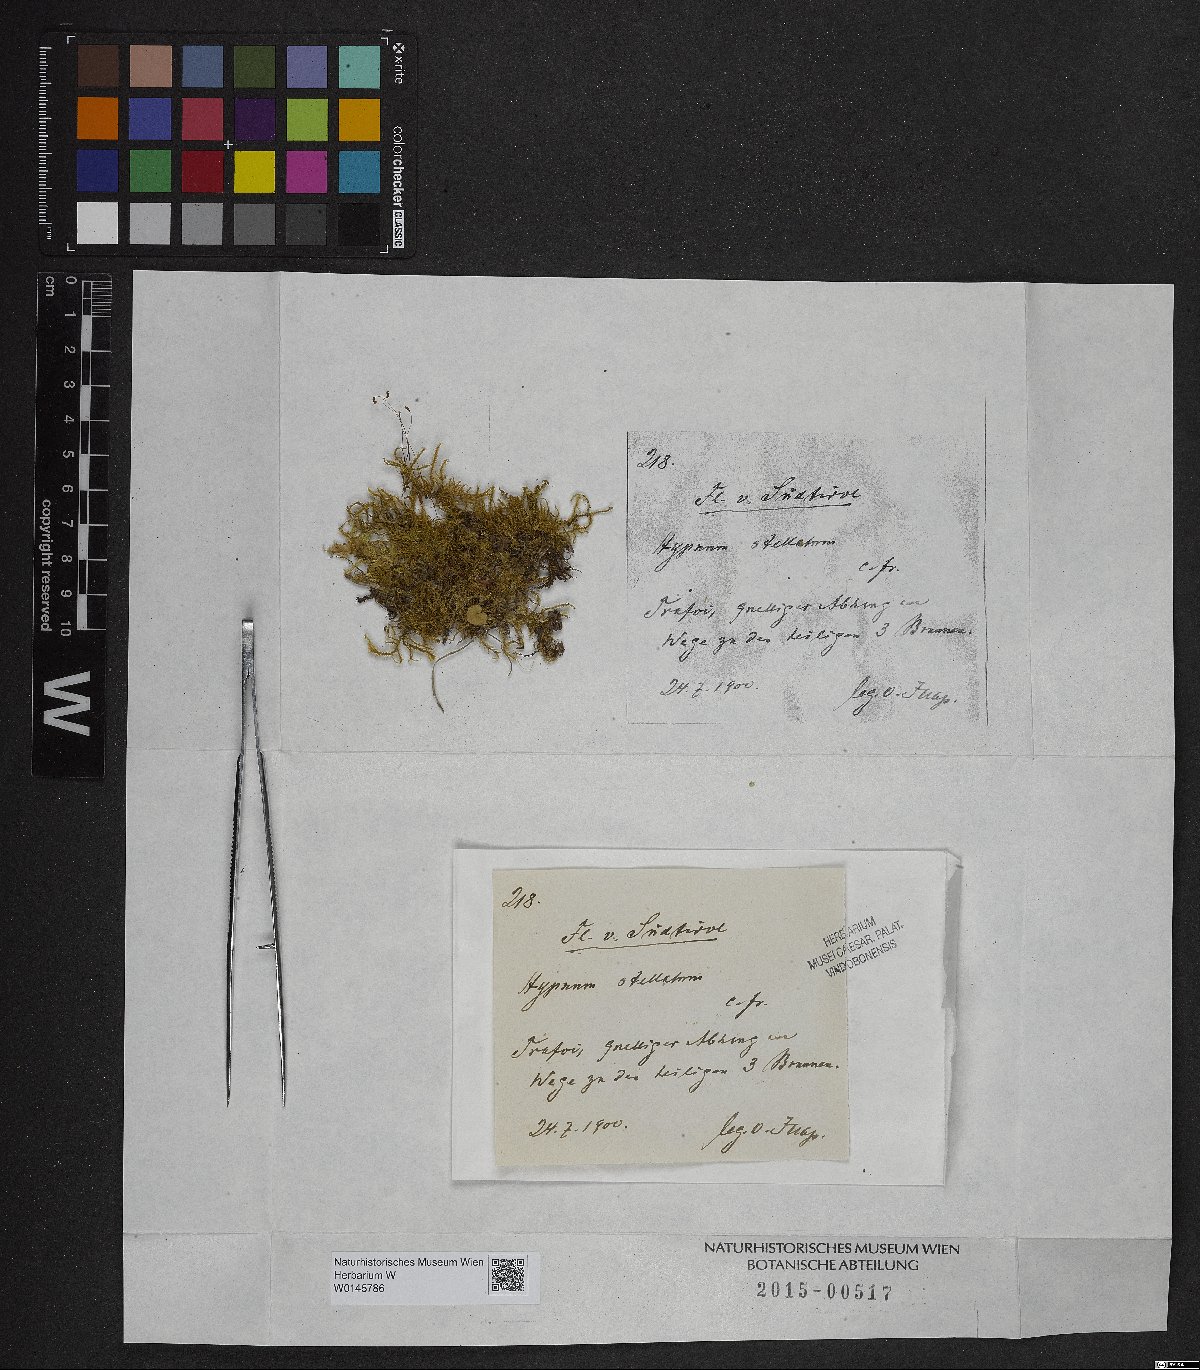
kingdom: Plantae
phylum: Bryophyta
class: Bryopsida
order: Hypnales
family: Amblystegiaceae
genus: Campylium
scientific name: Campylium stellatum
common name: Yellow starry fen moss
